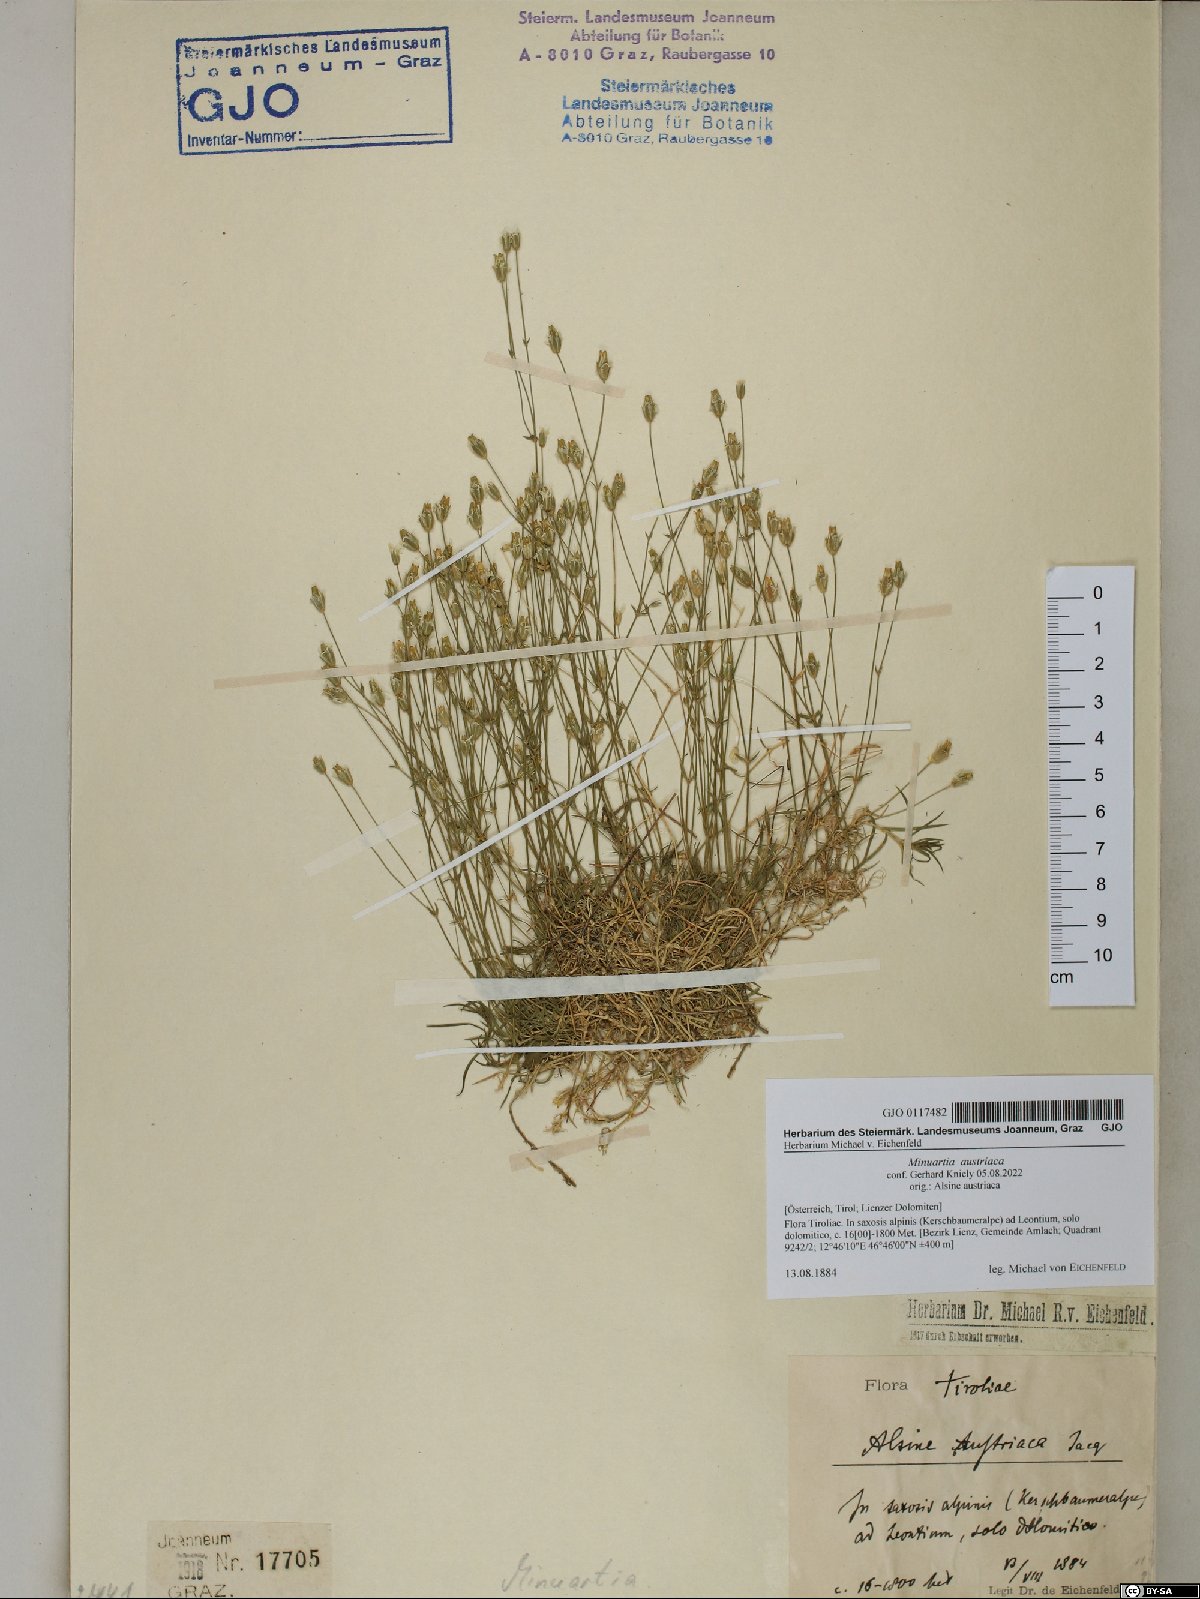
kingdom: Plantae
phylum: Tracheophyta
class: Magnoliopsida
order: Caryophyllales
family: Caryophyllaceae
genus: Sabulina
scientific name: Sabulina austriaca
